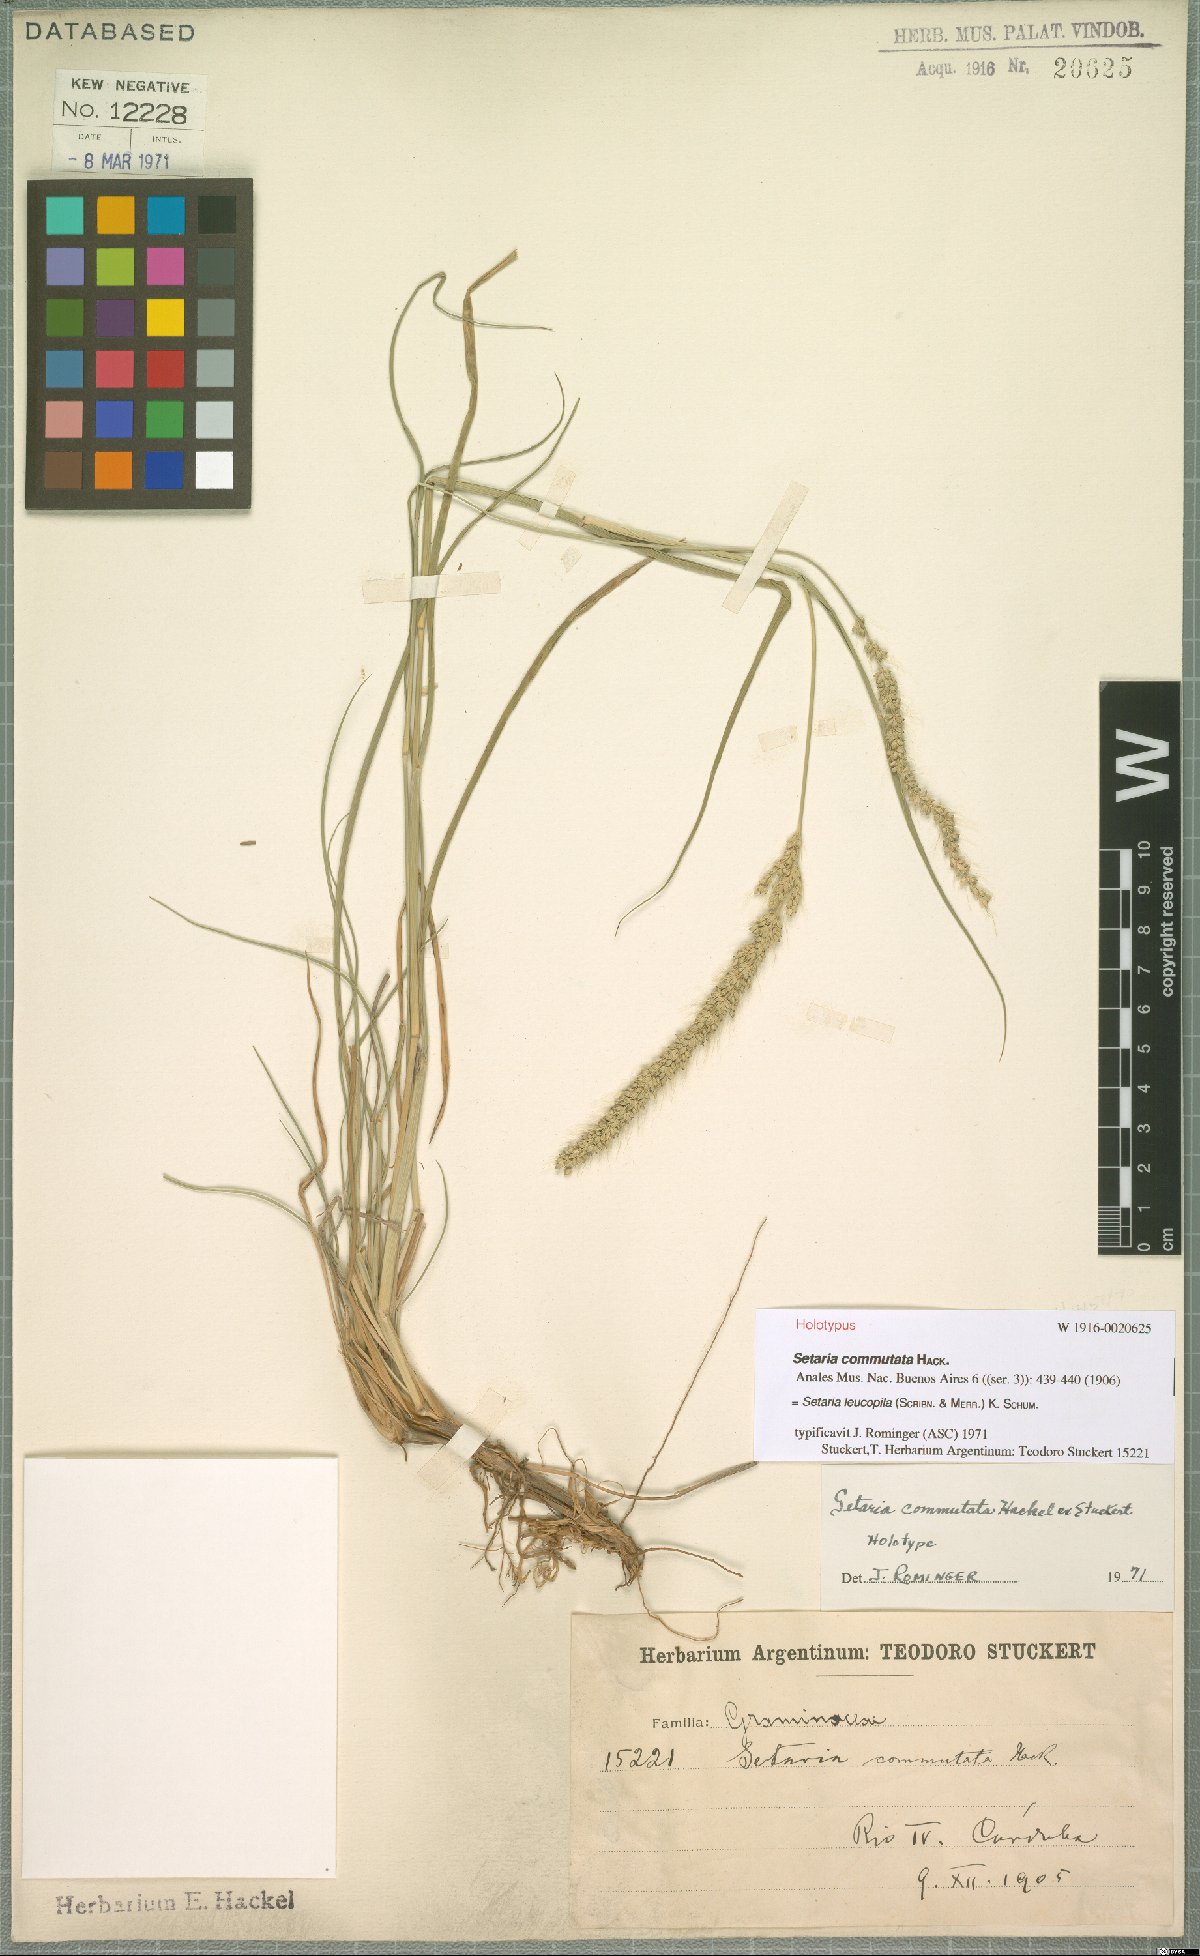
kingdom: Plantae
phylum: Tracheophyta
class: Liliopsida
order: Poales
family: Poaceae
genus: Setaria
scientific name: Setaria leucopila
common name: Plains bristle grass
